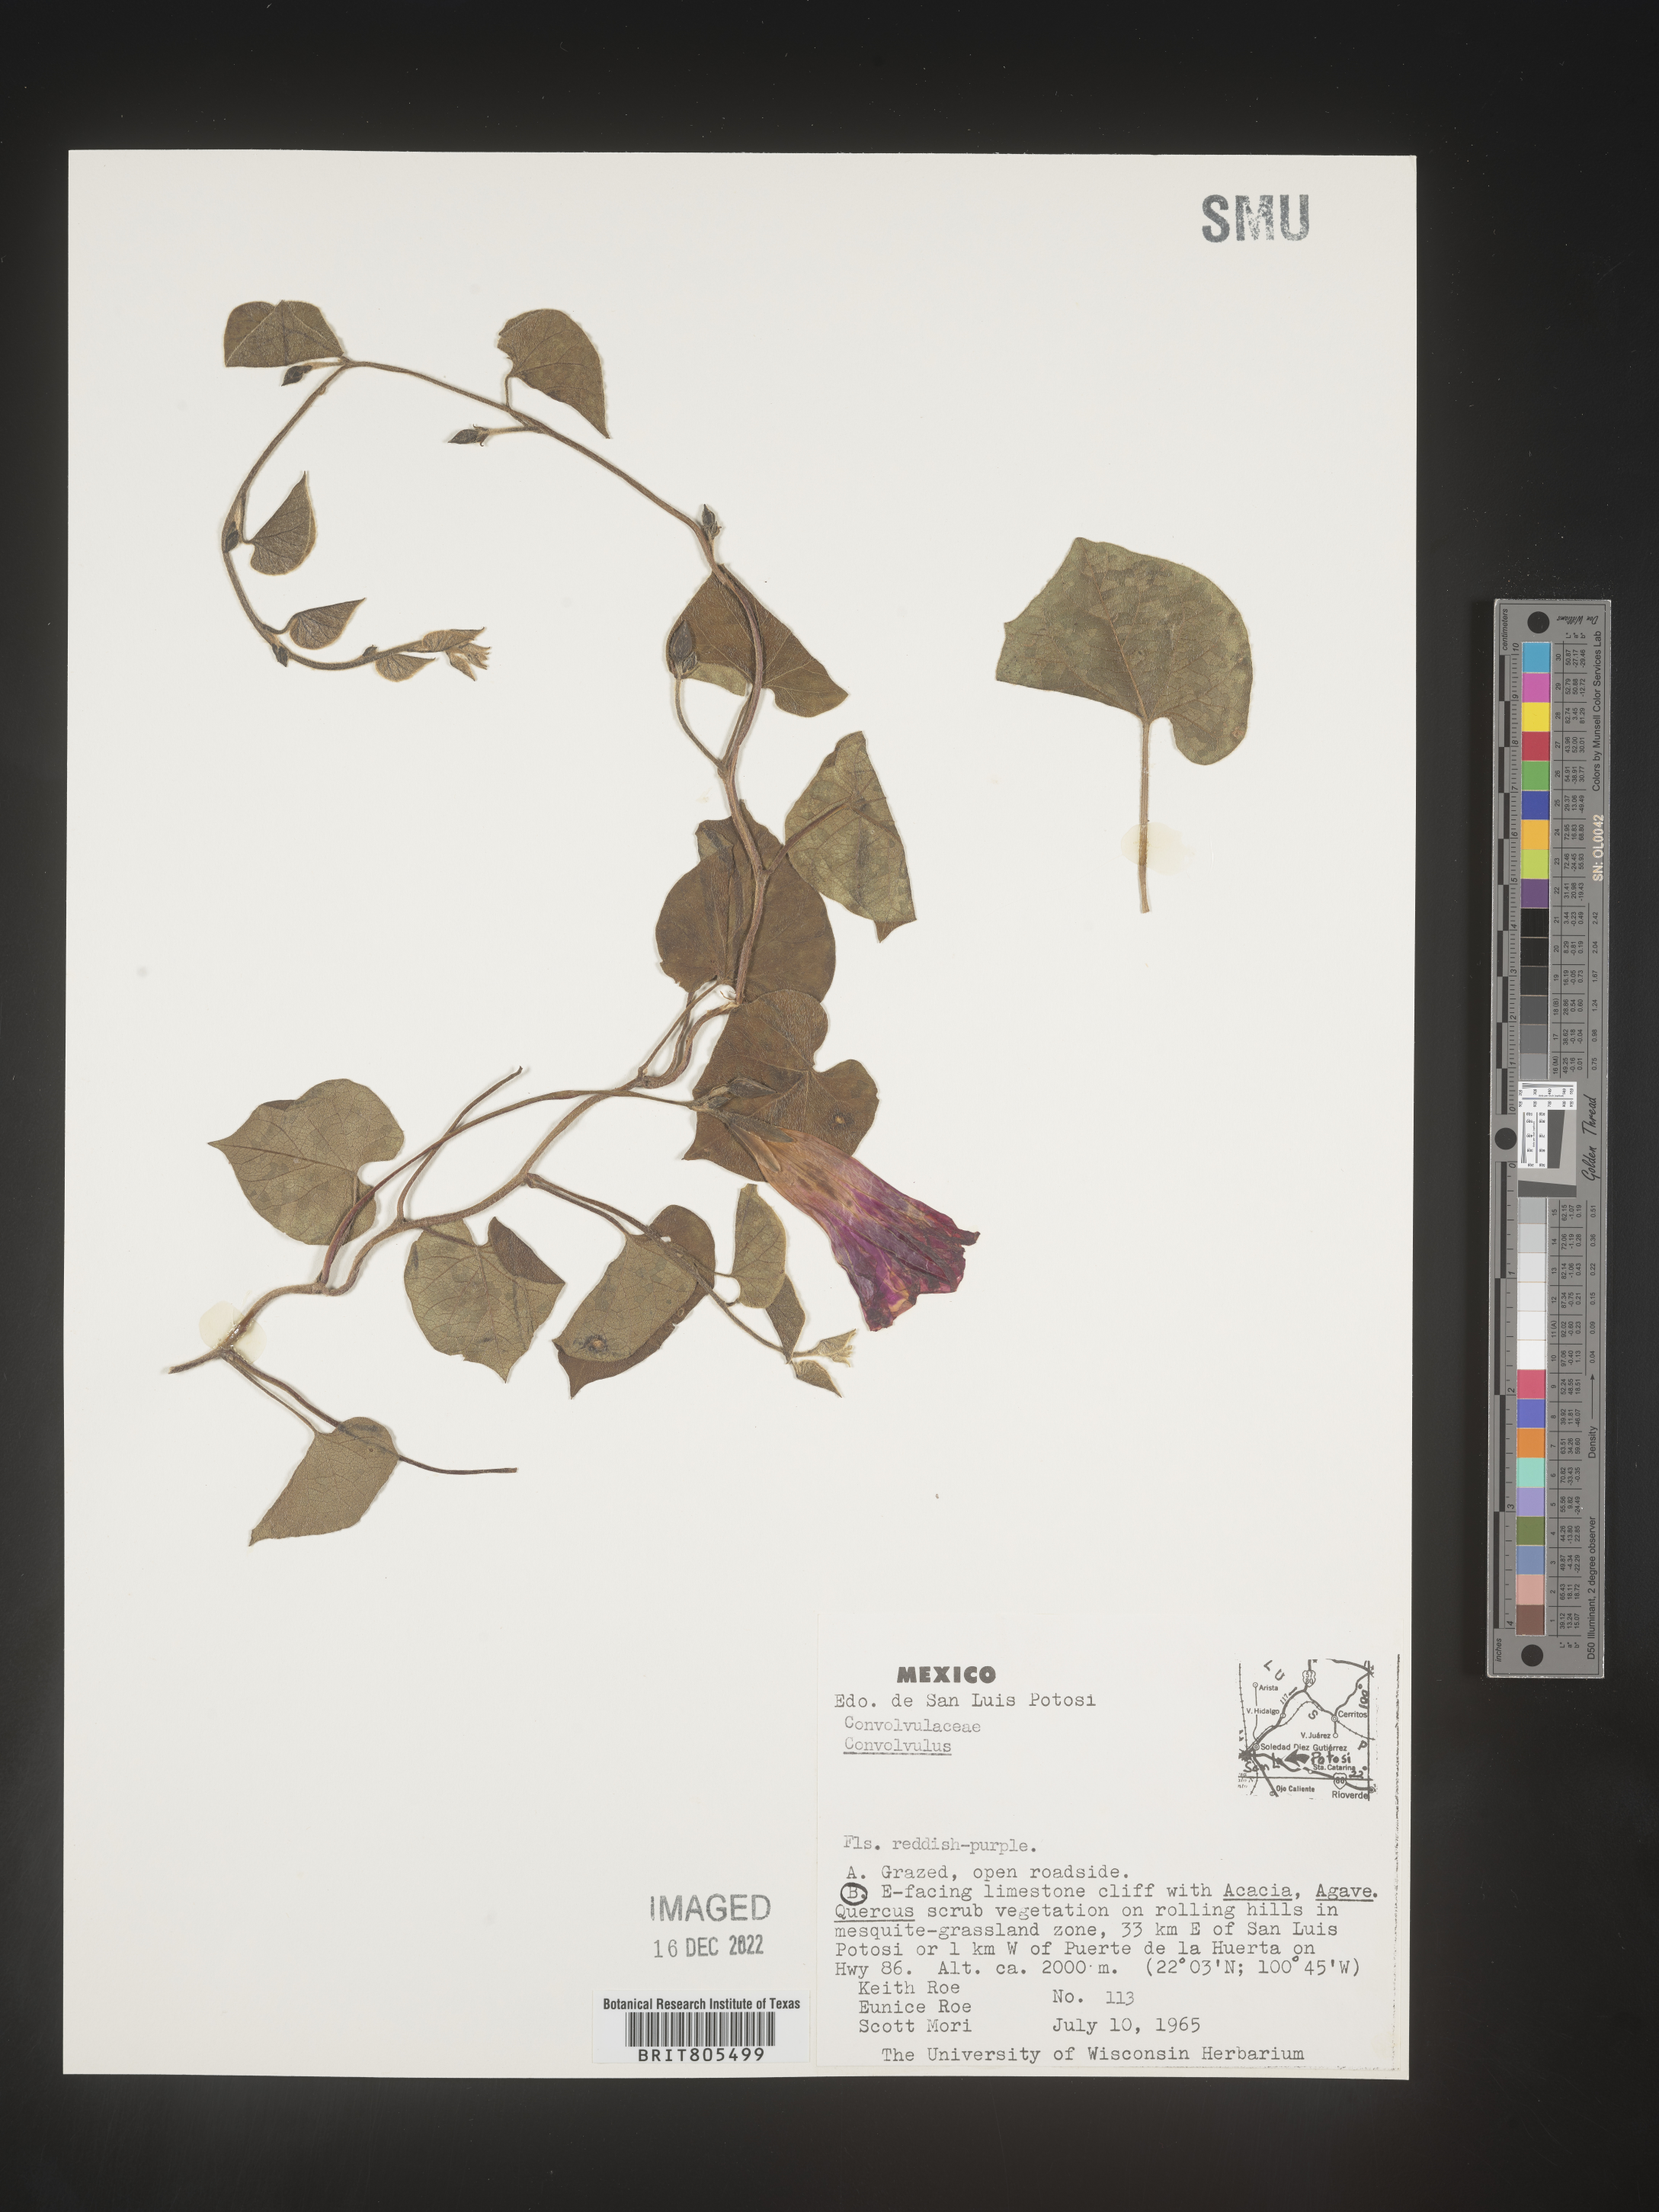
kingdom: Plantae
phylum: Tracheophyta
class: Magnoliopsida
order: Solanales
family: Convolvulaceae
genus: Ipomoea
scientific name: Ipomoea
